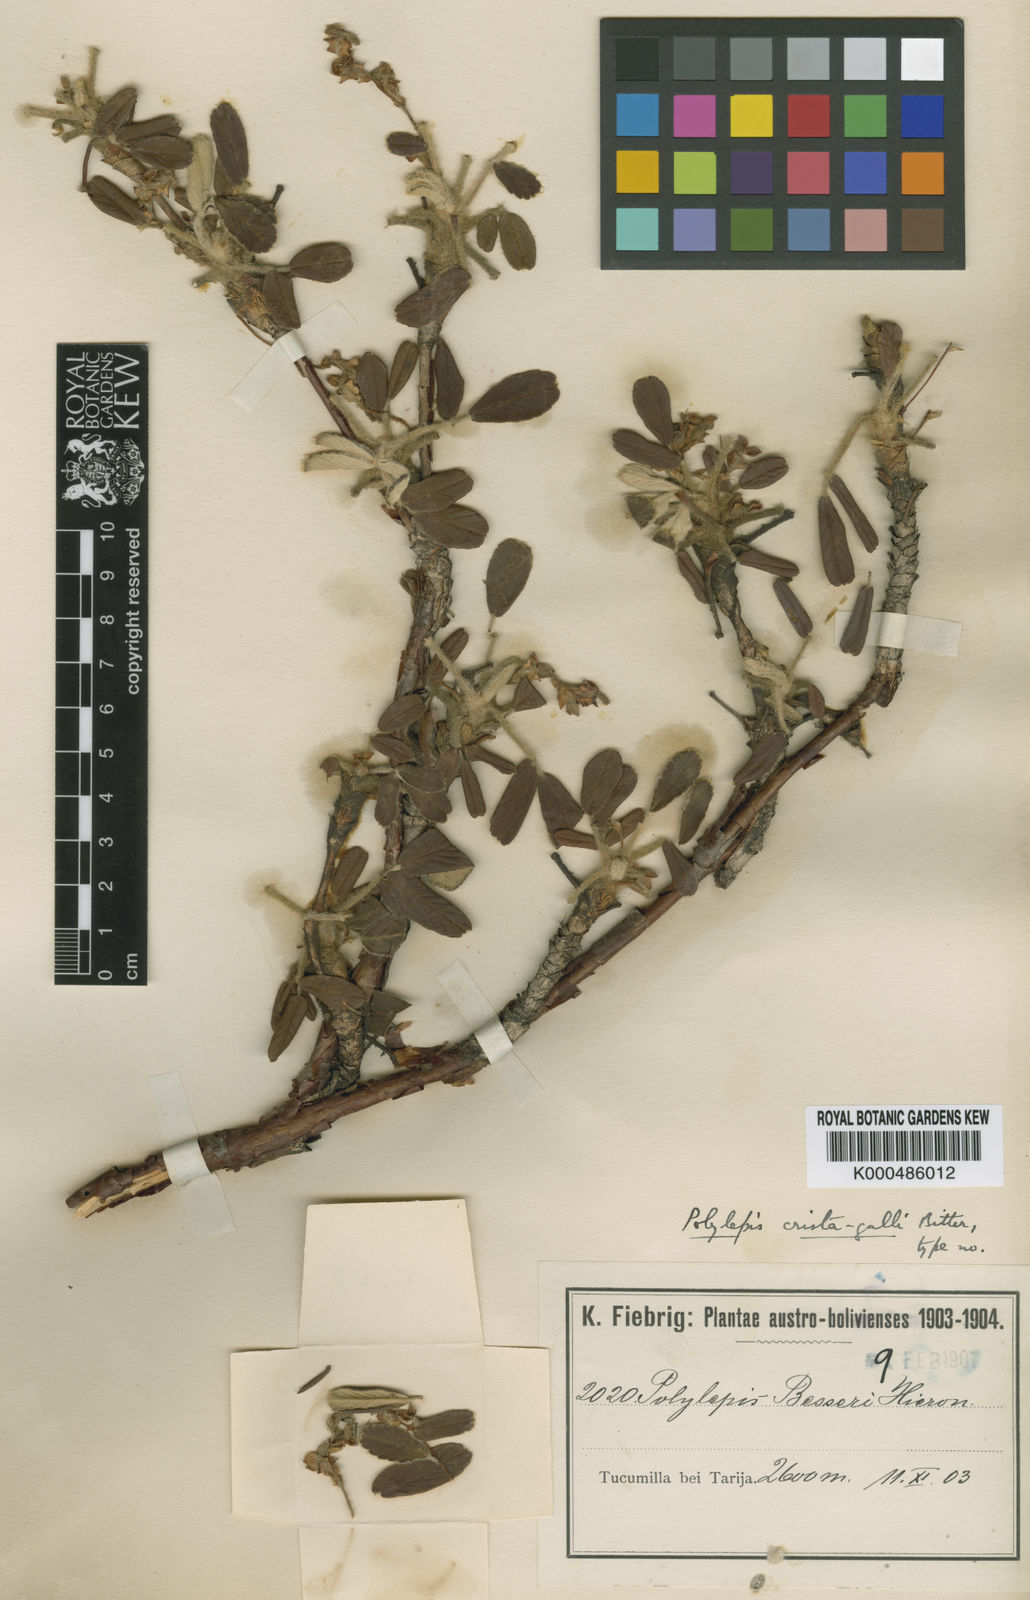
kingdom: Plantae
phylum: Tracheophyta
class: Magnoliopsida
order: Rosales
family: Rosaceae
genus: Polylepis
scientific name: Polylepis besseri
